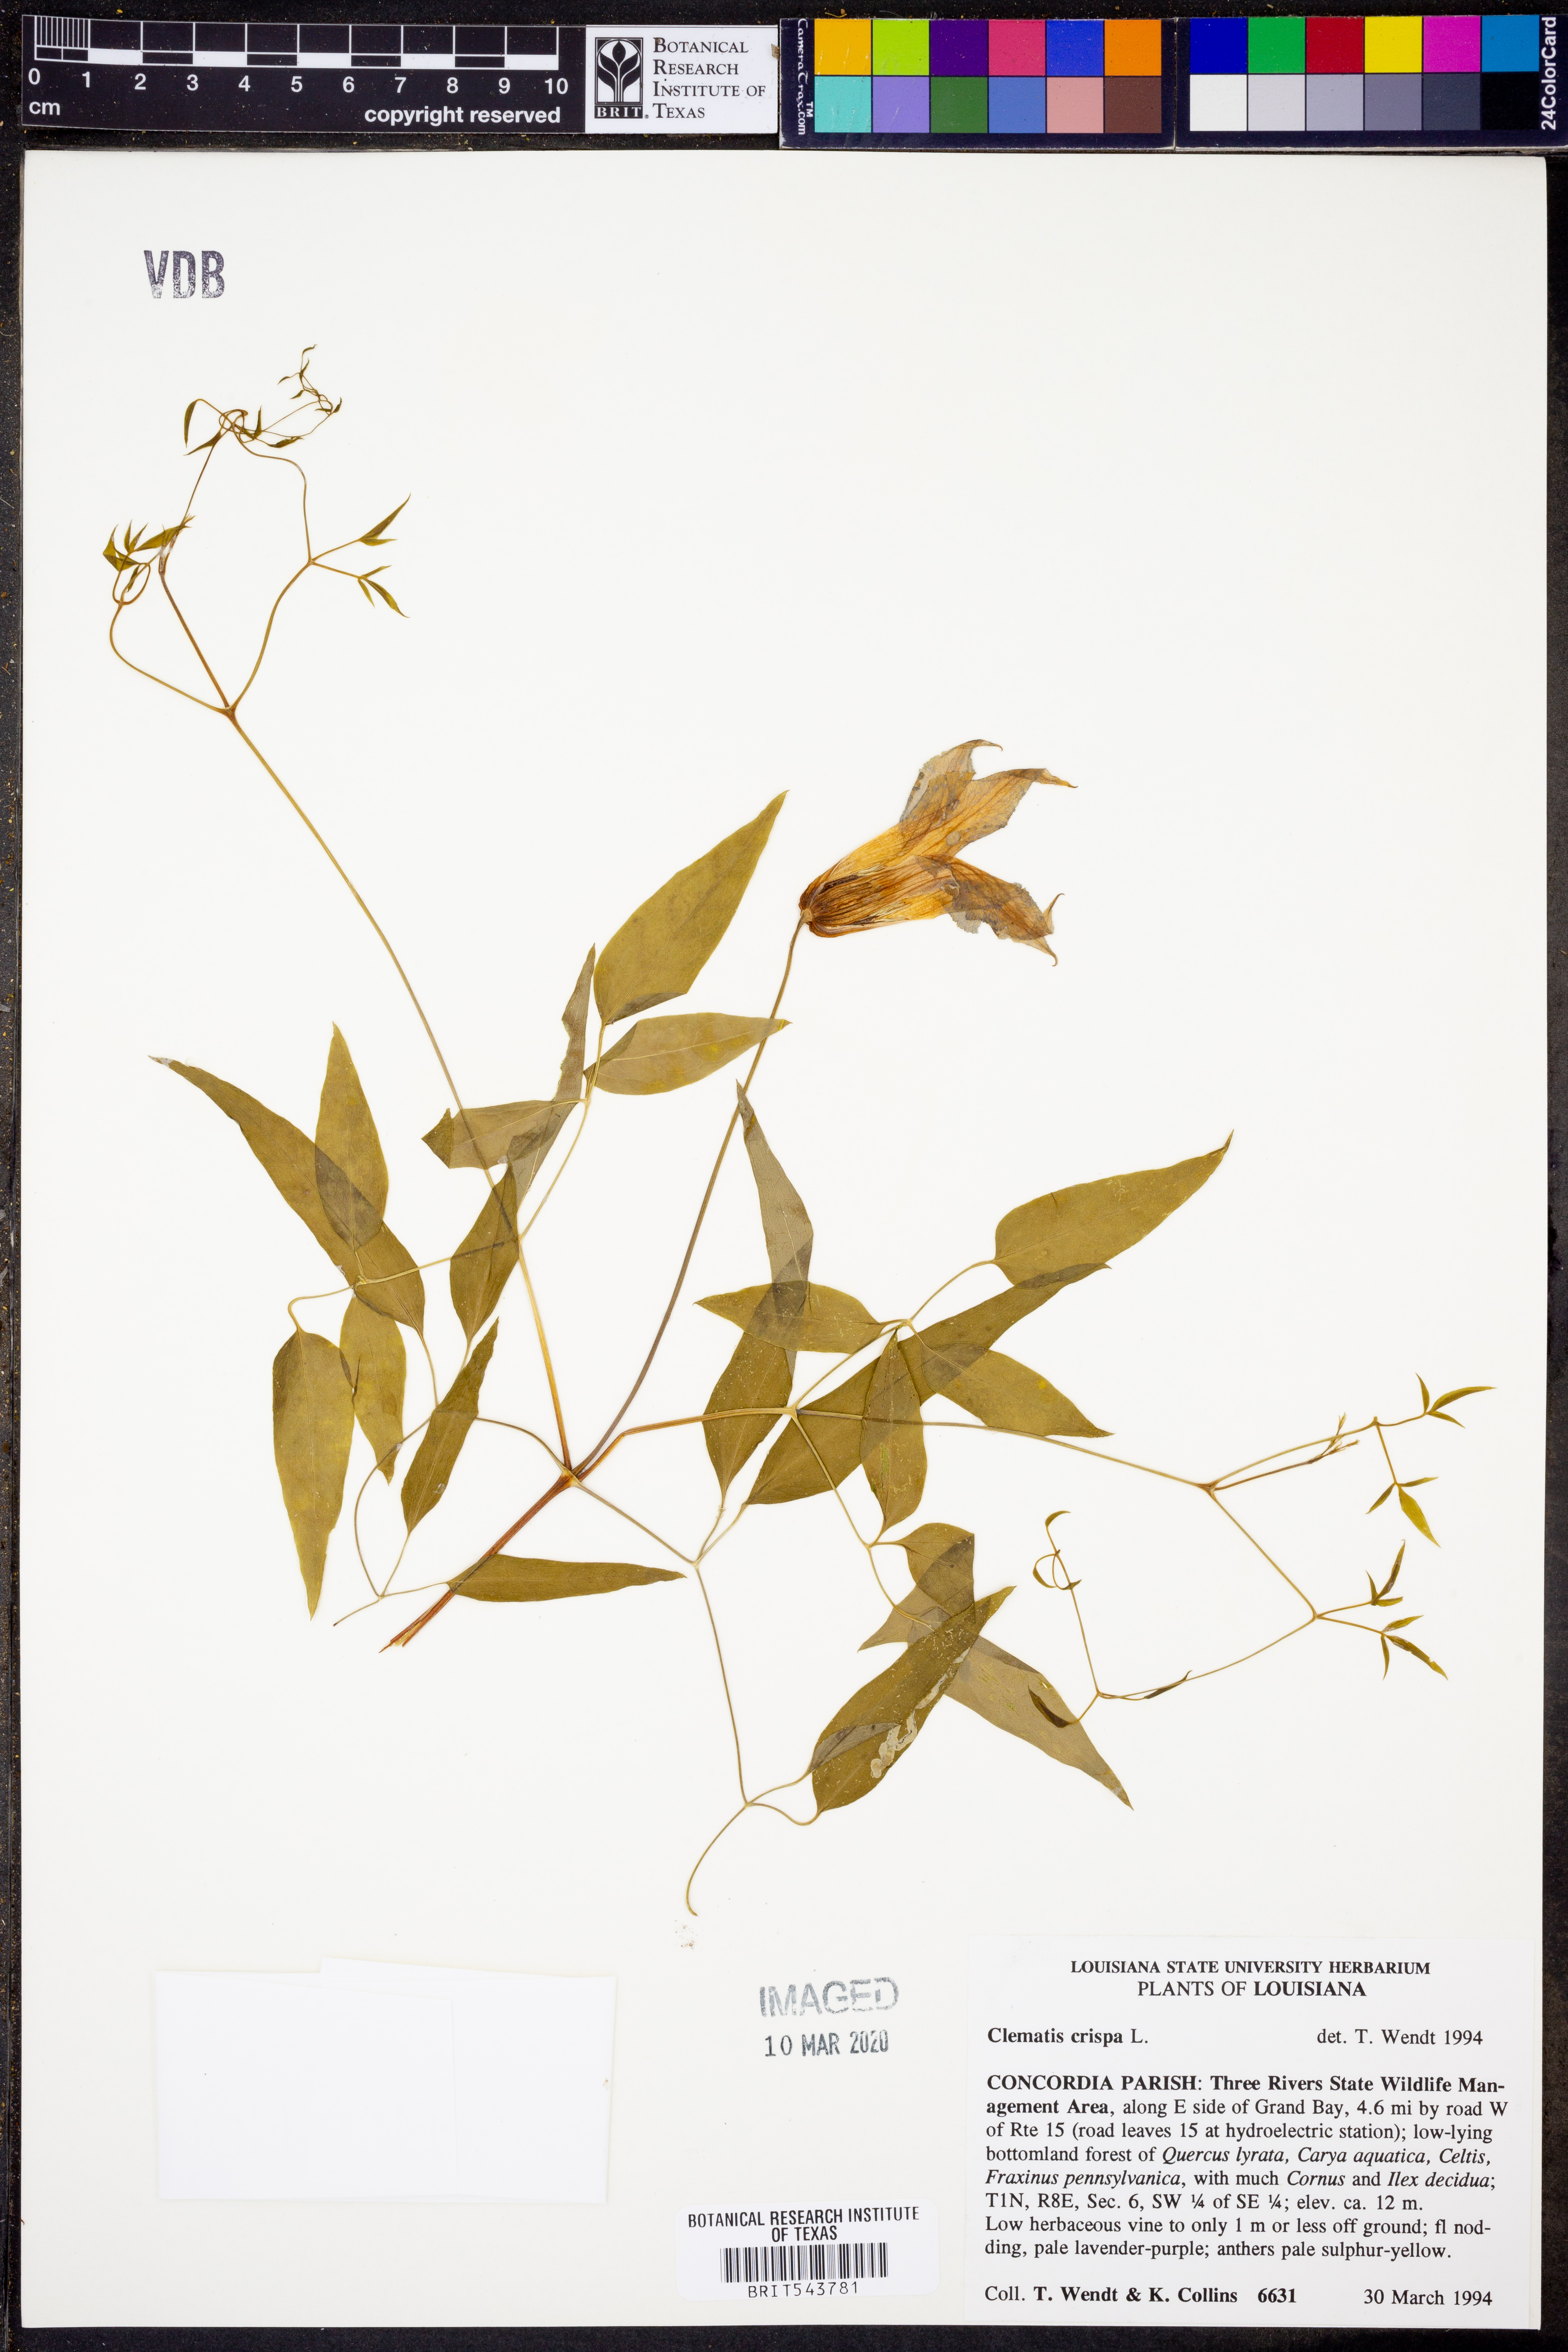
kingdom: Plantae
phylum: Tracheophyta
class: Magnoliopsida
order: Ranunculales
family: Ranunculaceae
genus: Clematis
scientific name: Clematis crispa
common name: Curly clematis
